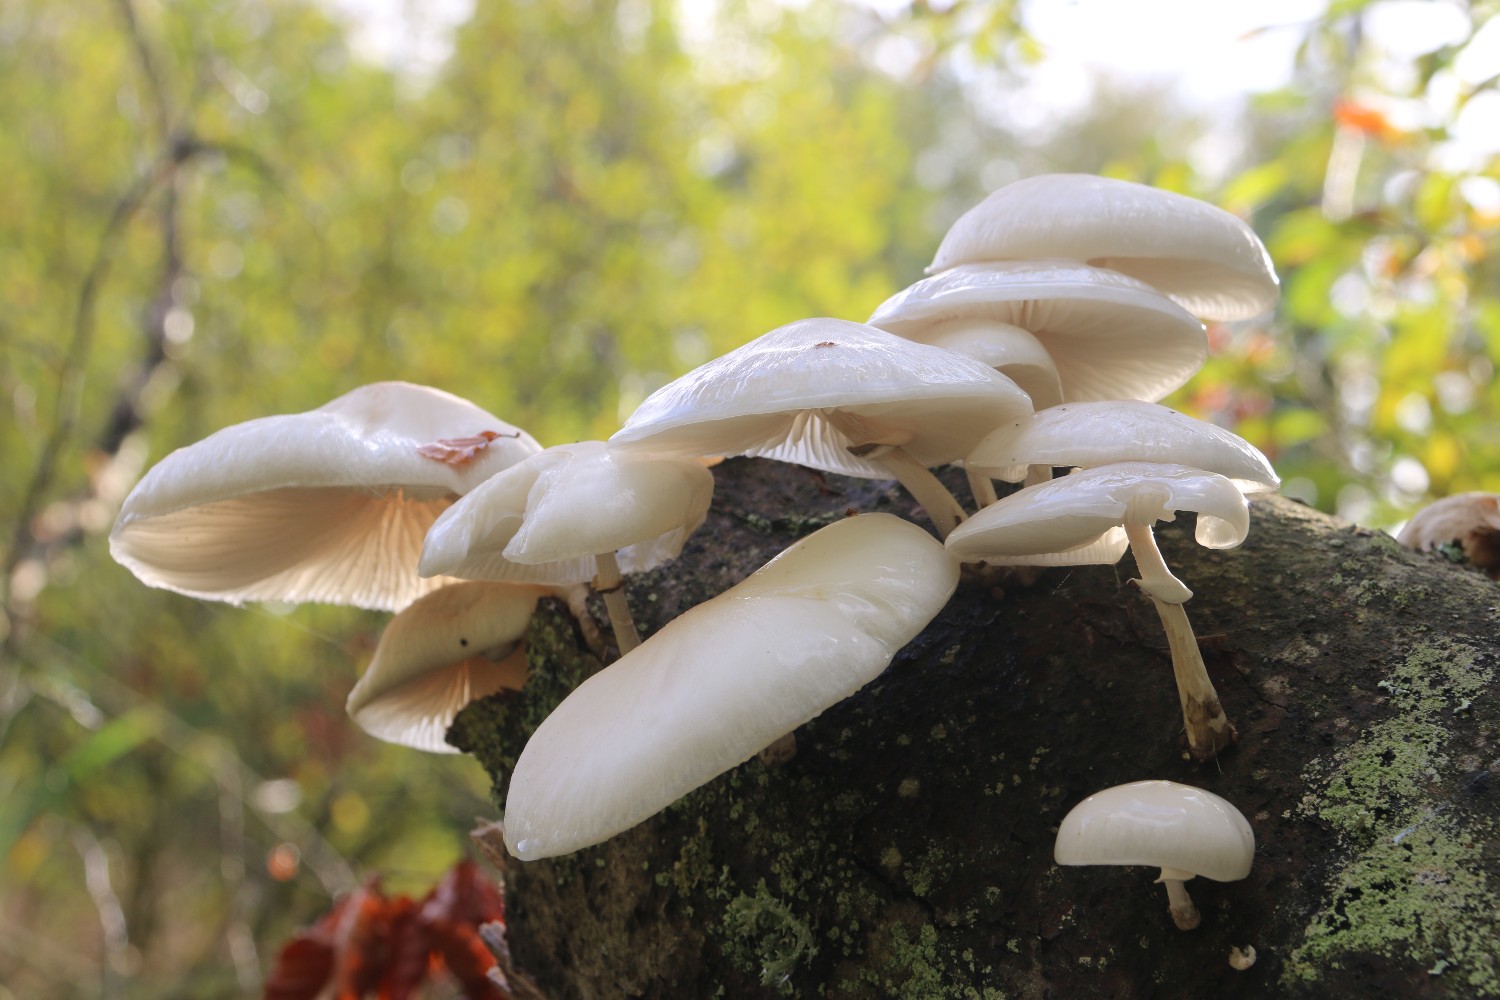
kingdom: Fungi
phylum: Basidiomycota
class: Agaricomycetes
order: Agaricales
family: Physalacriaceae
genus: Mucidula
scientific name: Mucidula mucida
